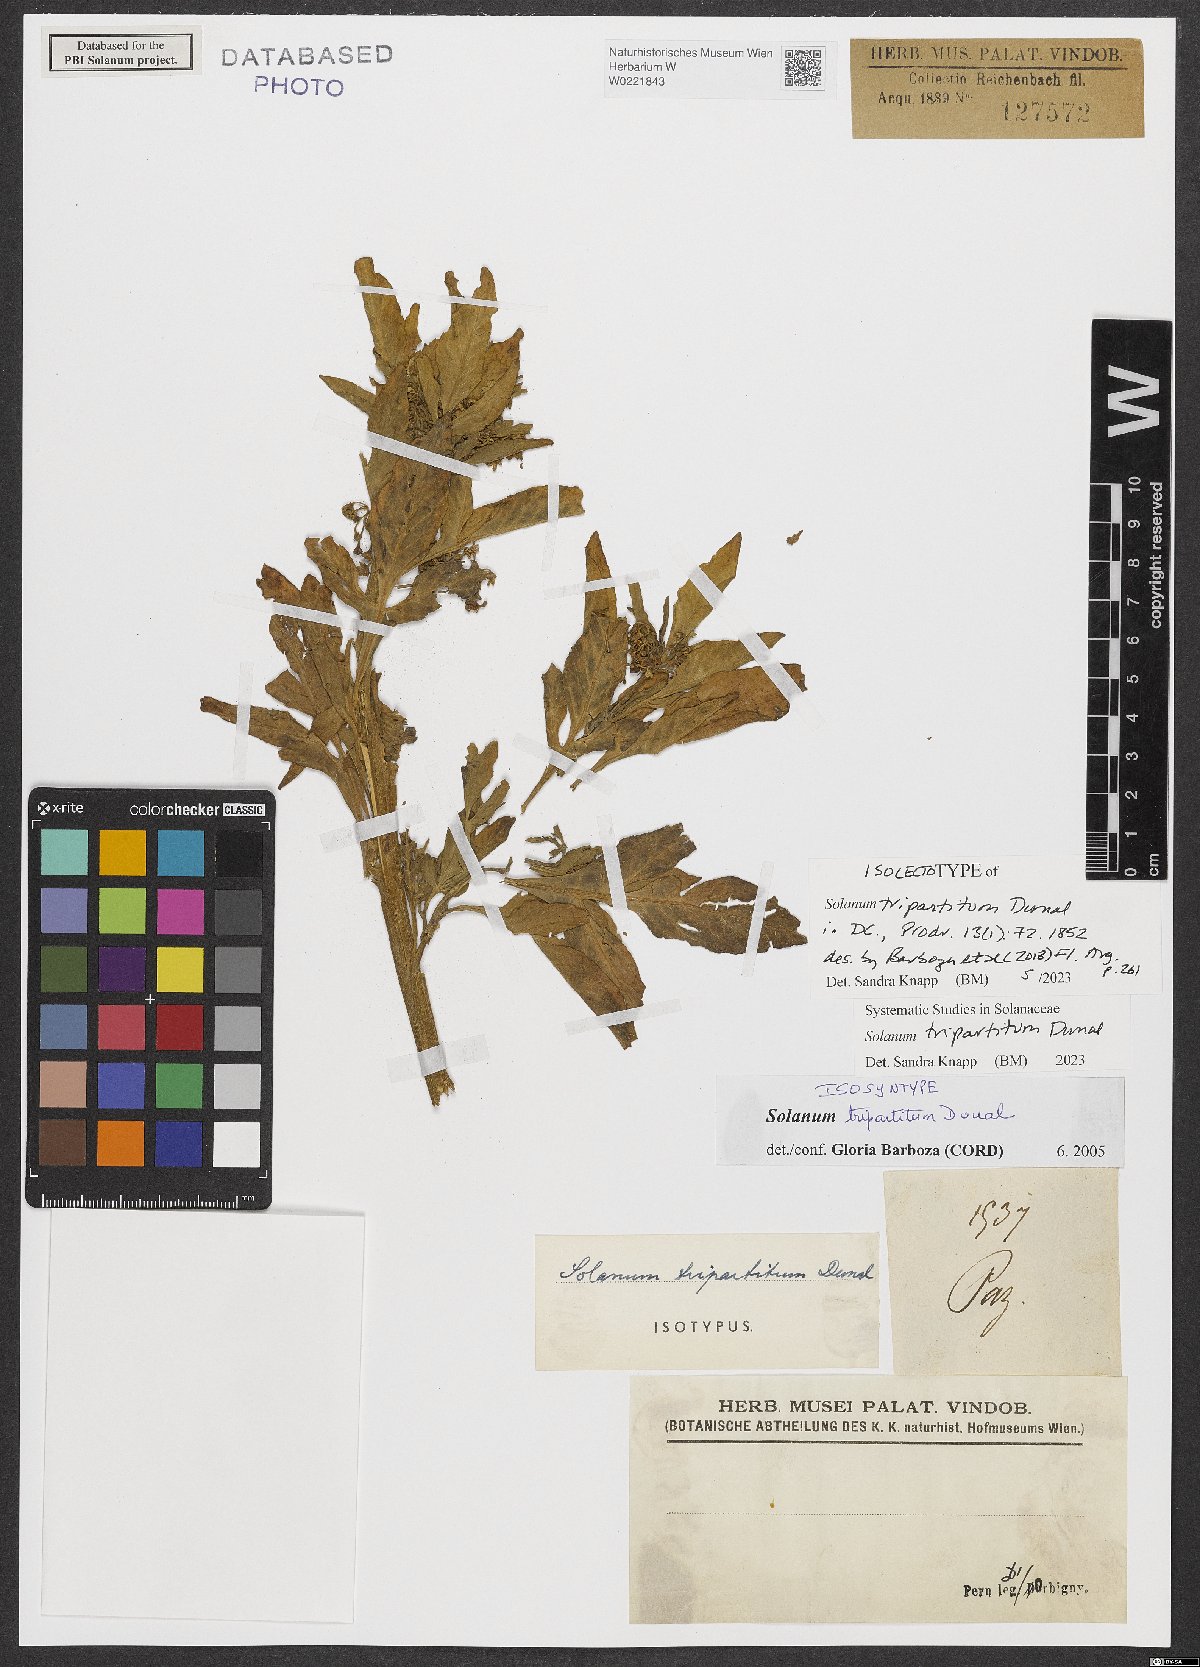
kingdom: Plantae
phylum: Tracheophyta
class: Magnoliopsida
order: Solanales
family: Solanaceae
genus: Solanum
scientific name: Solanum tripartitum
